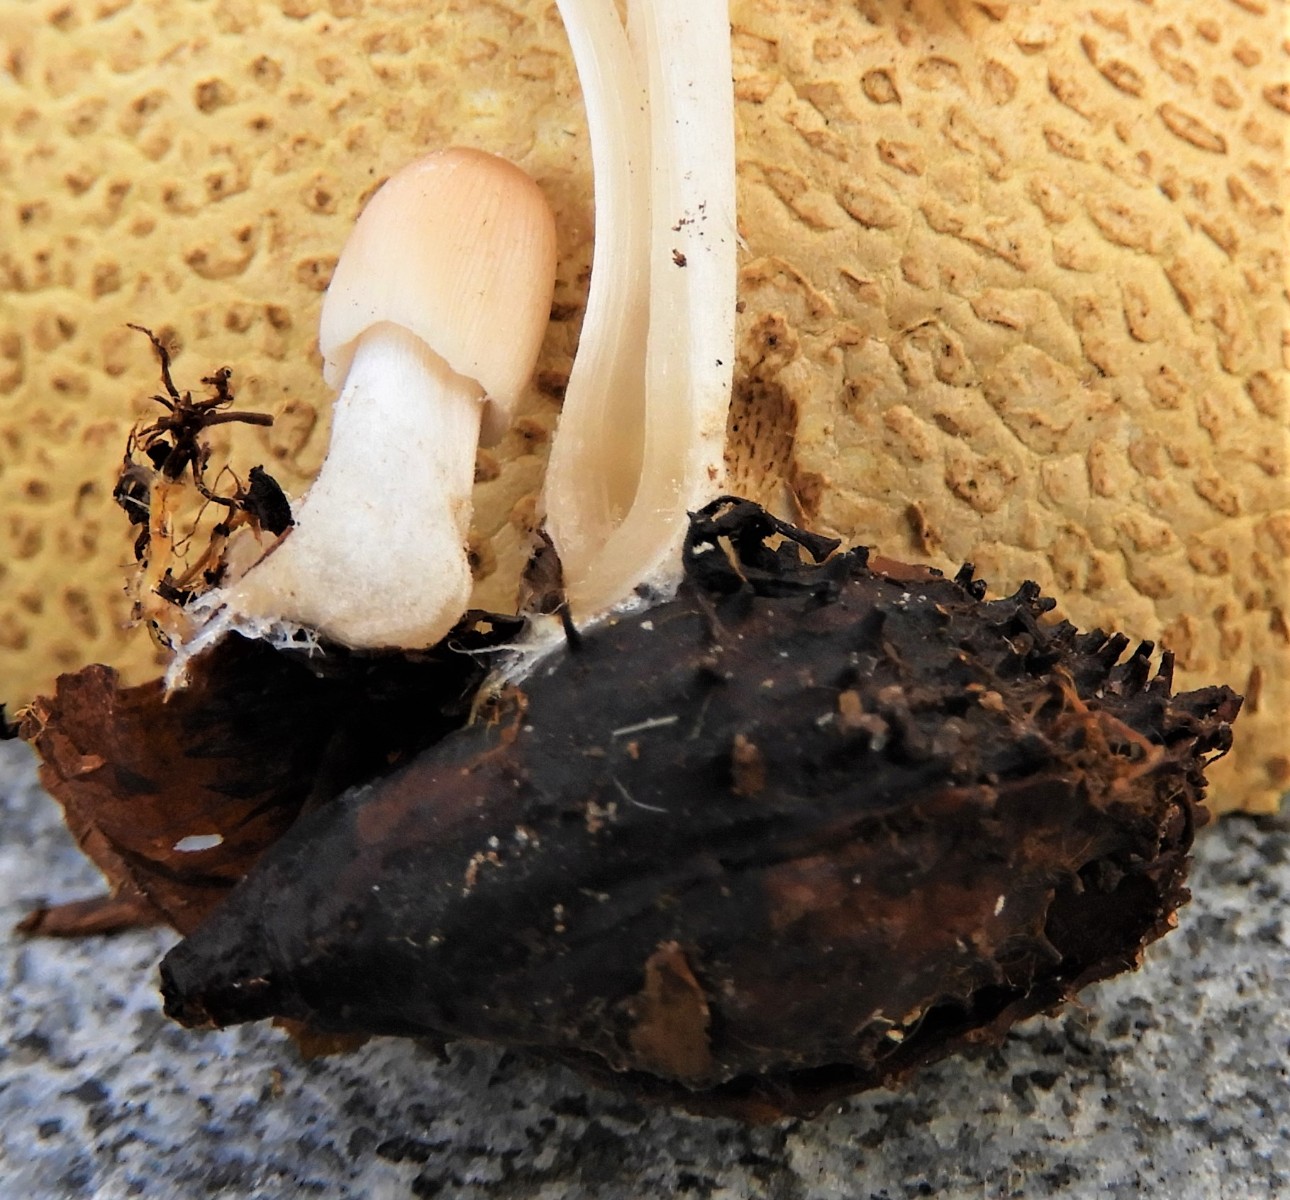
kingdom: Fungi
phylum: Basidiomycota
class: Agaricomycetes
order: Agaricales
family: Psathyrellaceae
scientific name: Psathyrellaceae
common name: mørkhatfamilien
